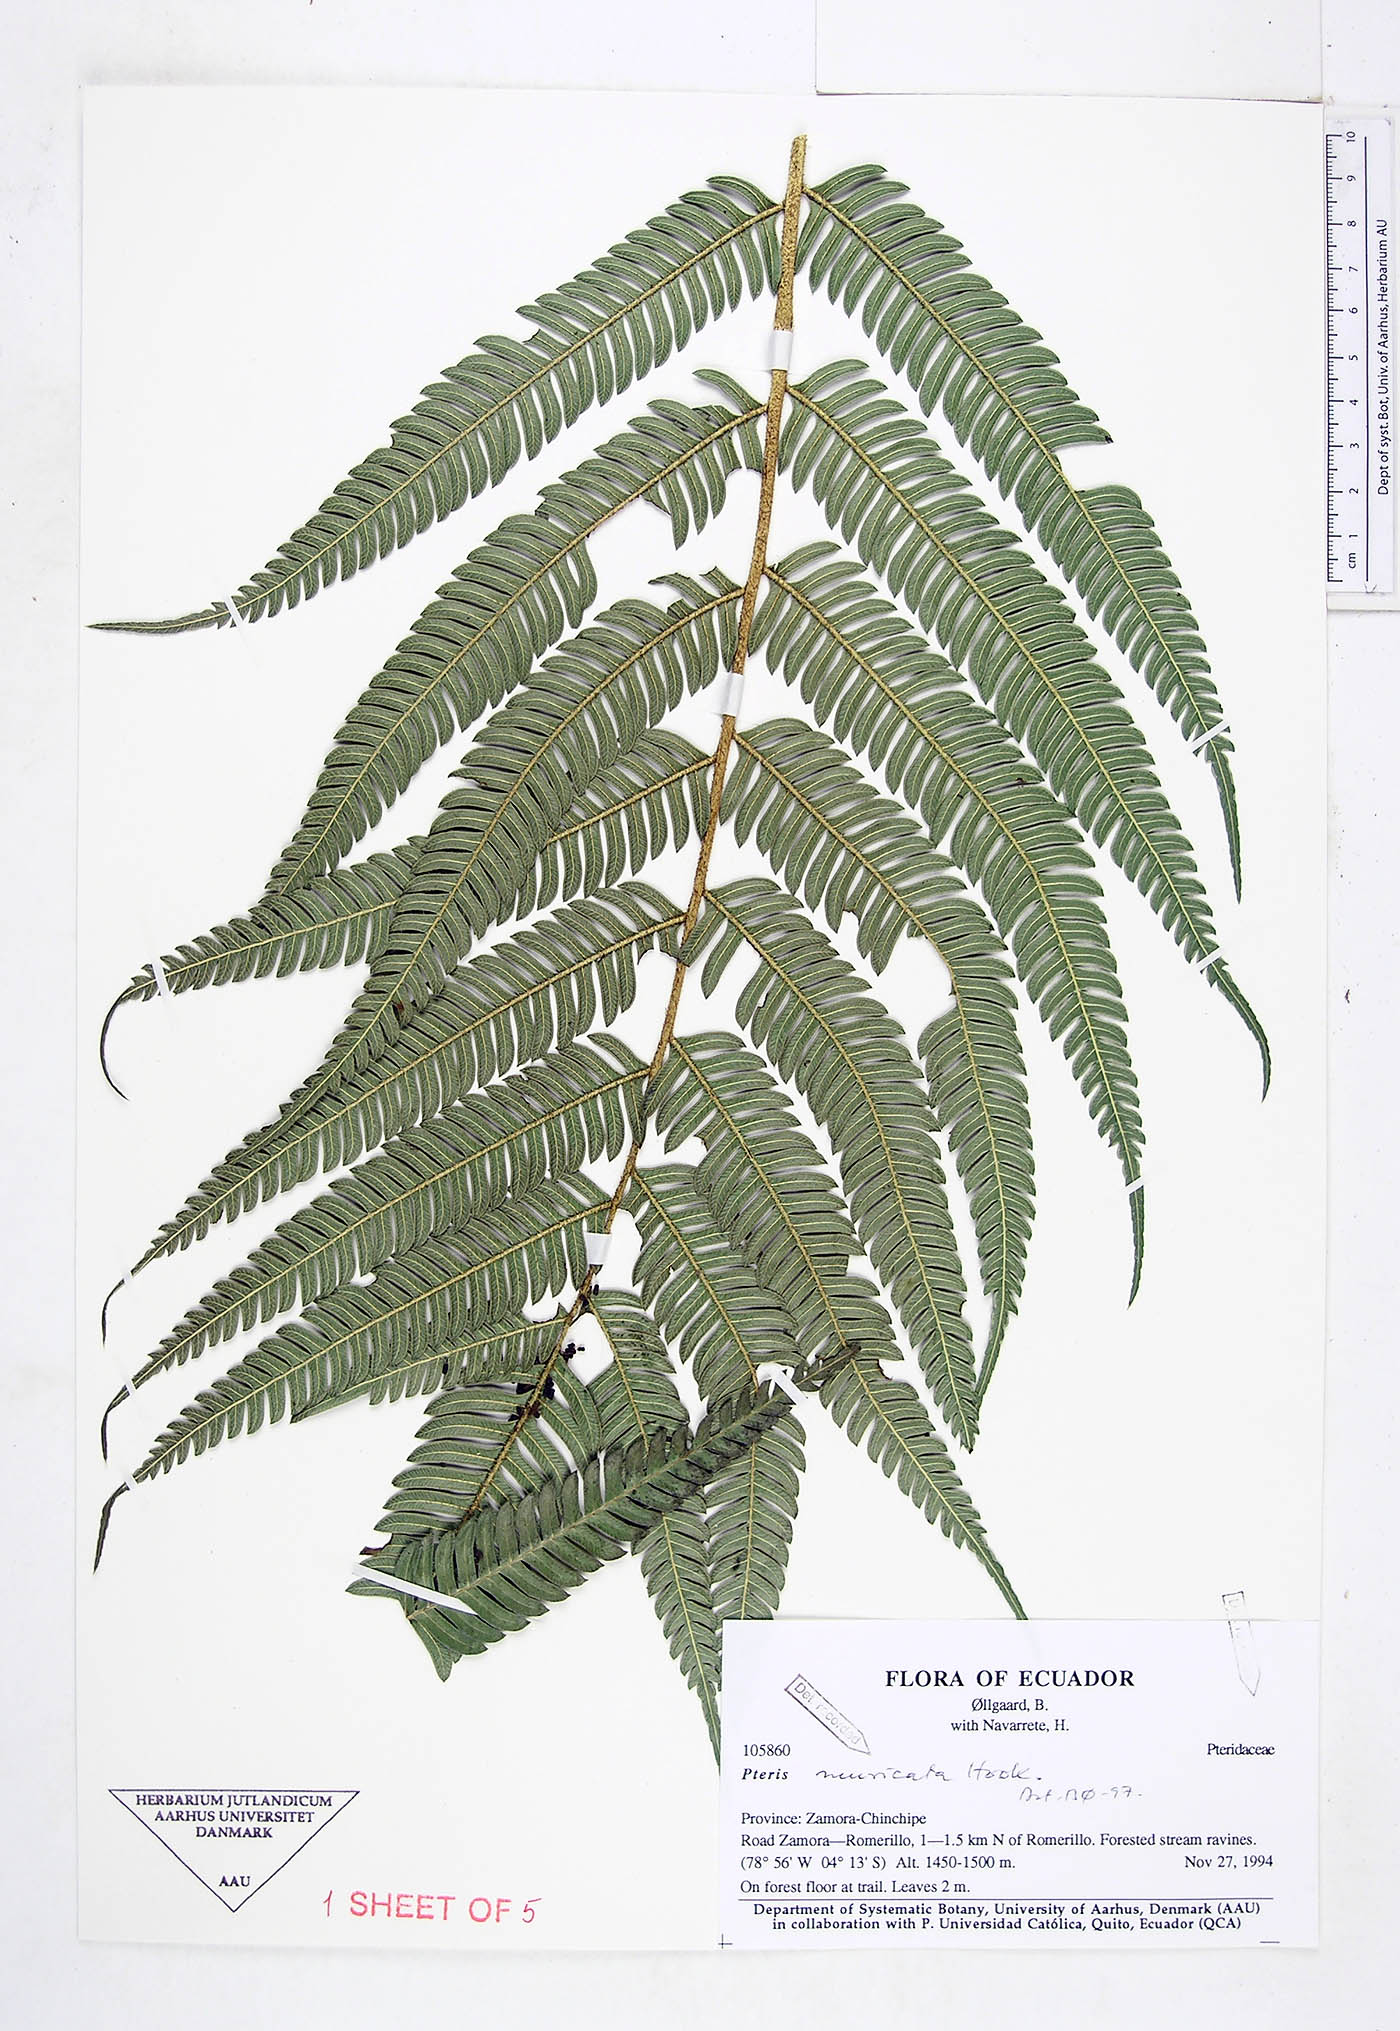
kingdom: Plantae
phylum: Tracheophyta
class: Polypodiopsida
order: Polypodiales
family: Pteridaceae
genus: Pteris
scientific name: Pteris muricata
